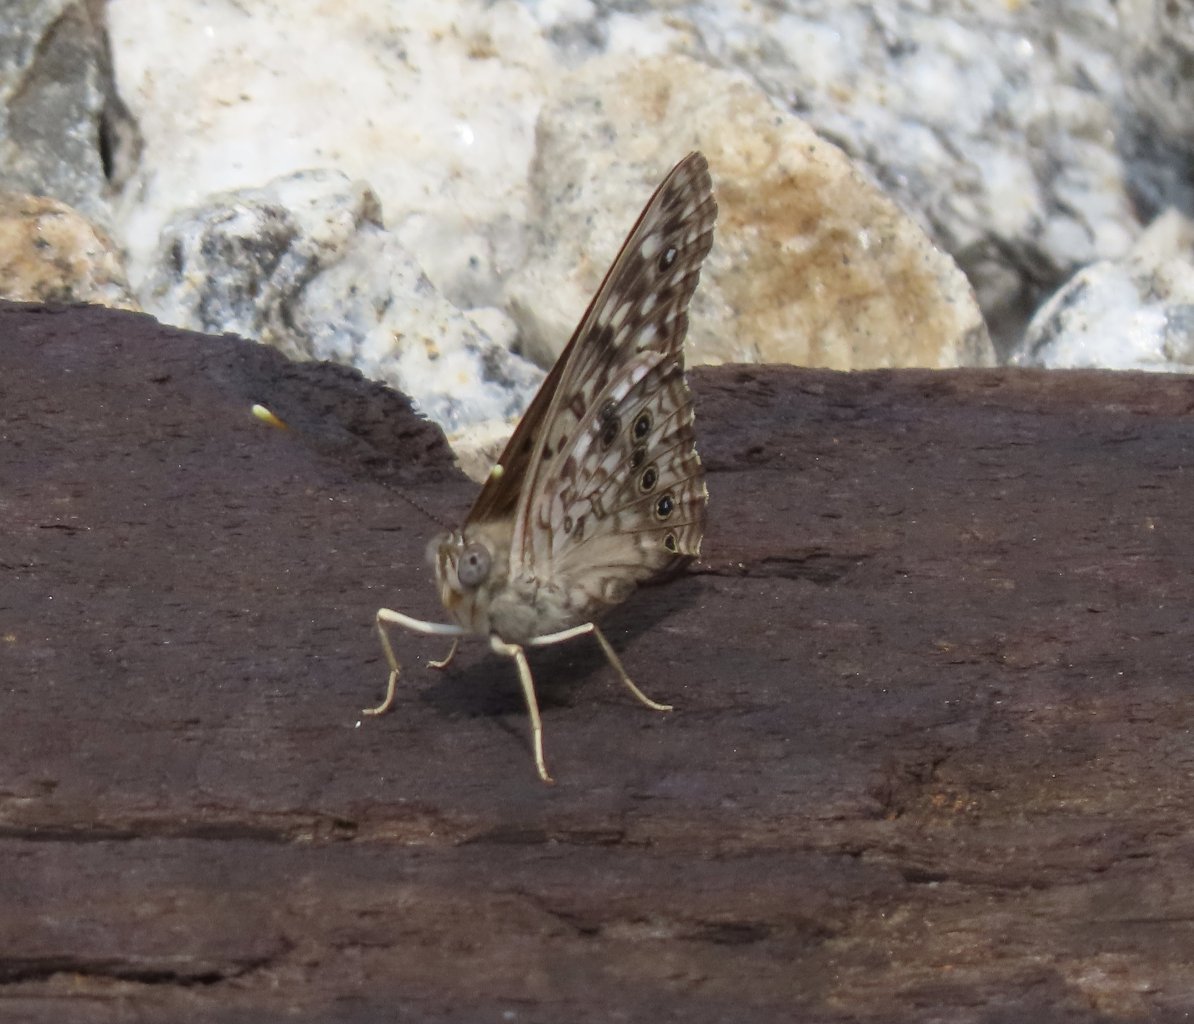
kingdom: Animalia
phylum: Arthropoda
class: Insecta
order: Lepidoptera
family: Nymphalidae
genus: Asterocampa
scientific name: Asterocampa celtis
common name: Hackberry Emperor
